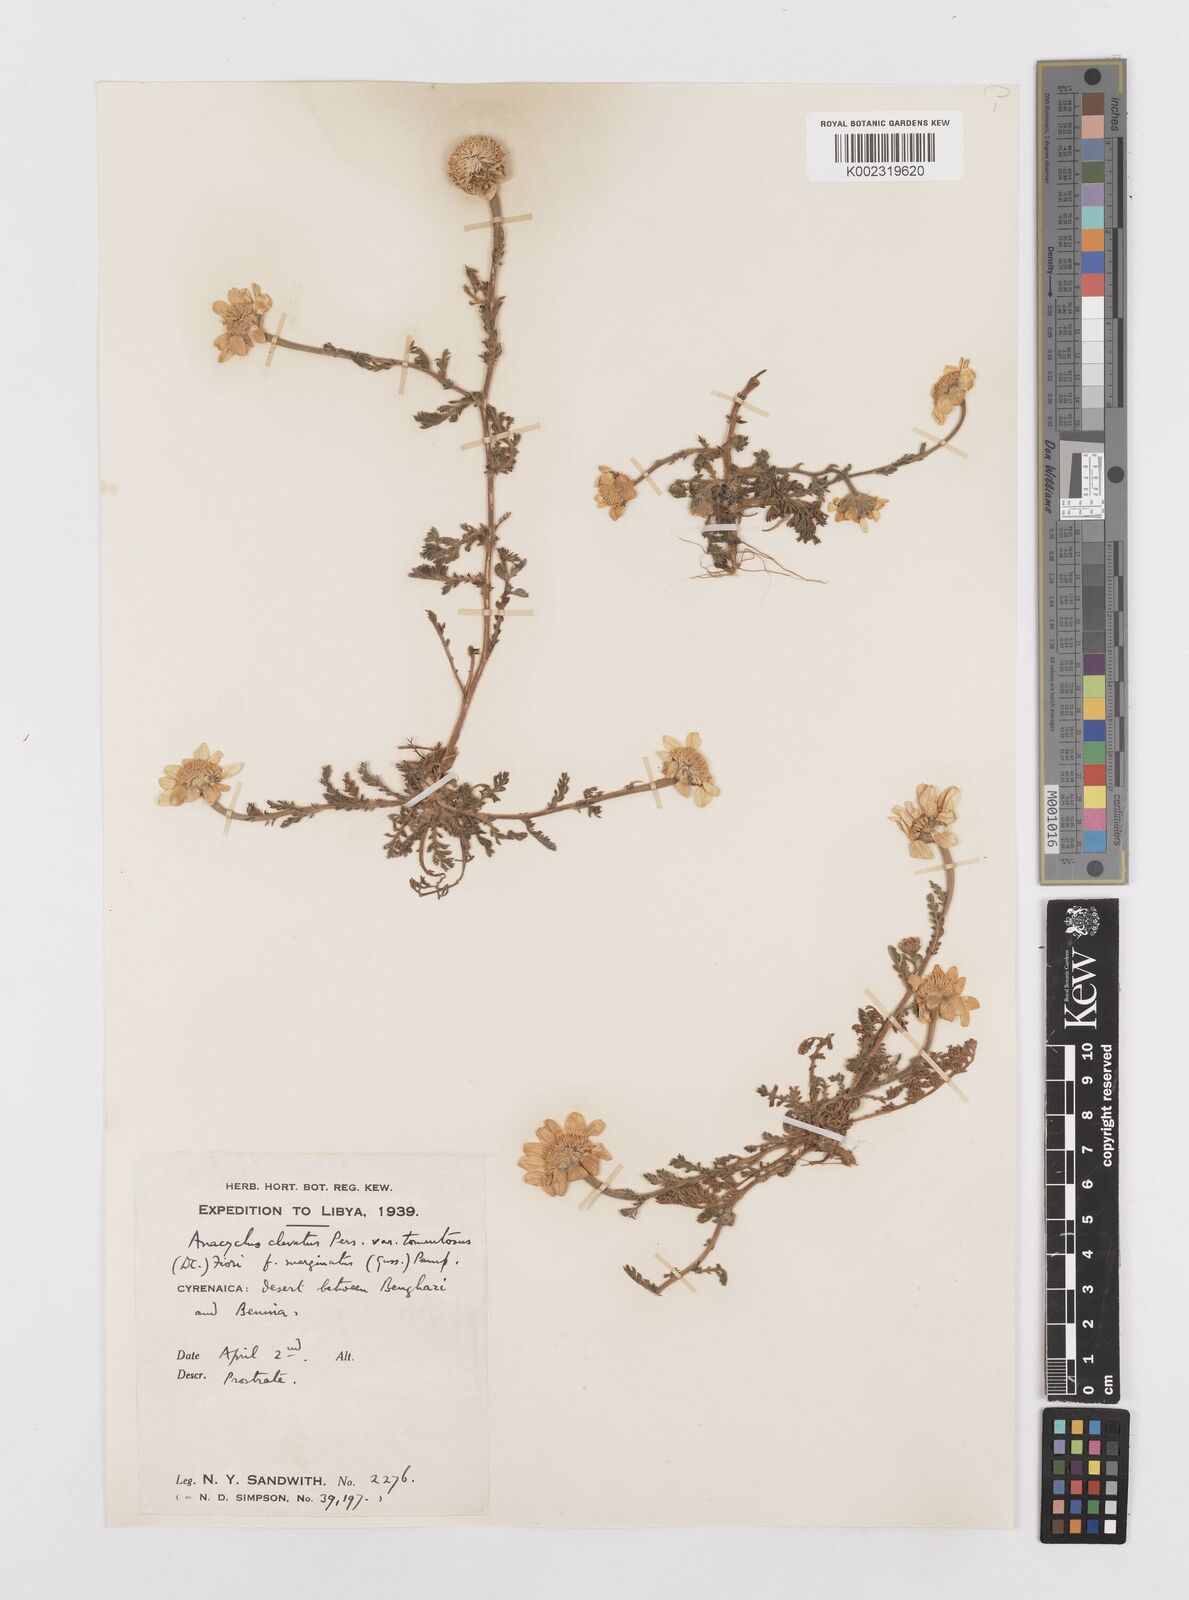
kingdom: Plantae
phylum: Tracheophyta
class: Magnoliopsida
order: Asterales
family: Asteraceae
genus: Anacyclus
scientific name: Anacyclus clavatus
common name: Whitebuttons
